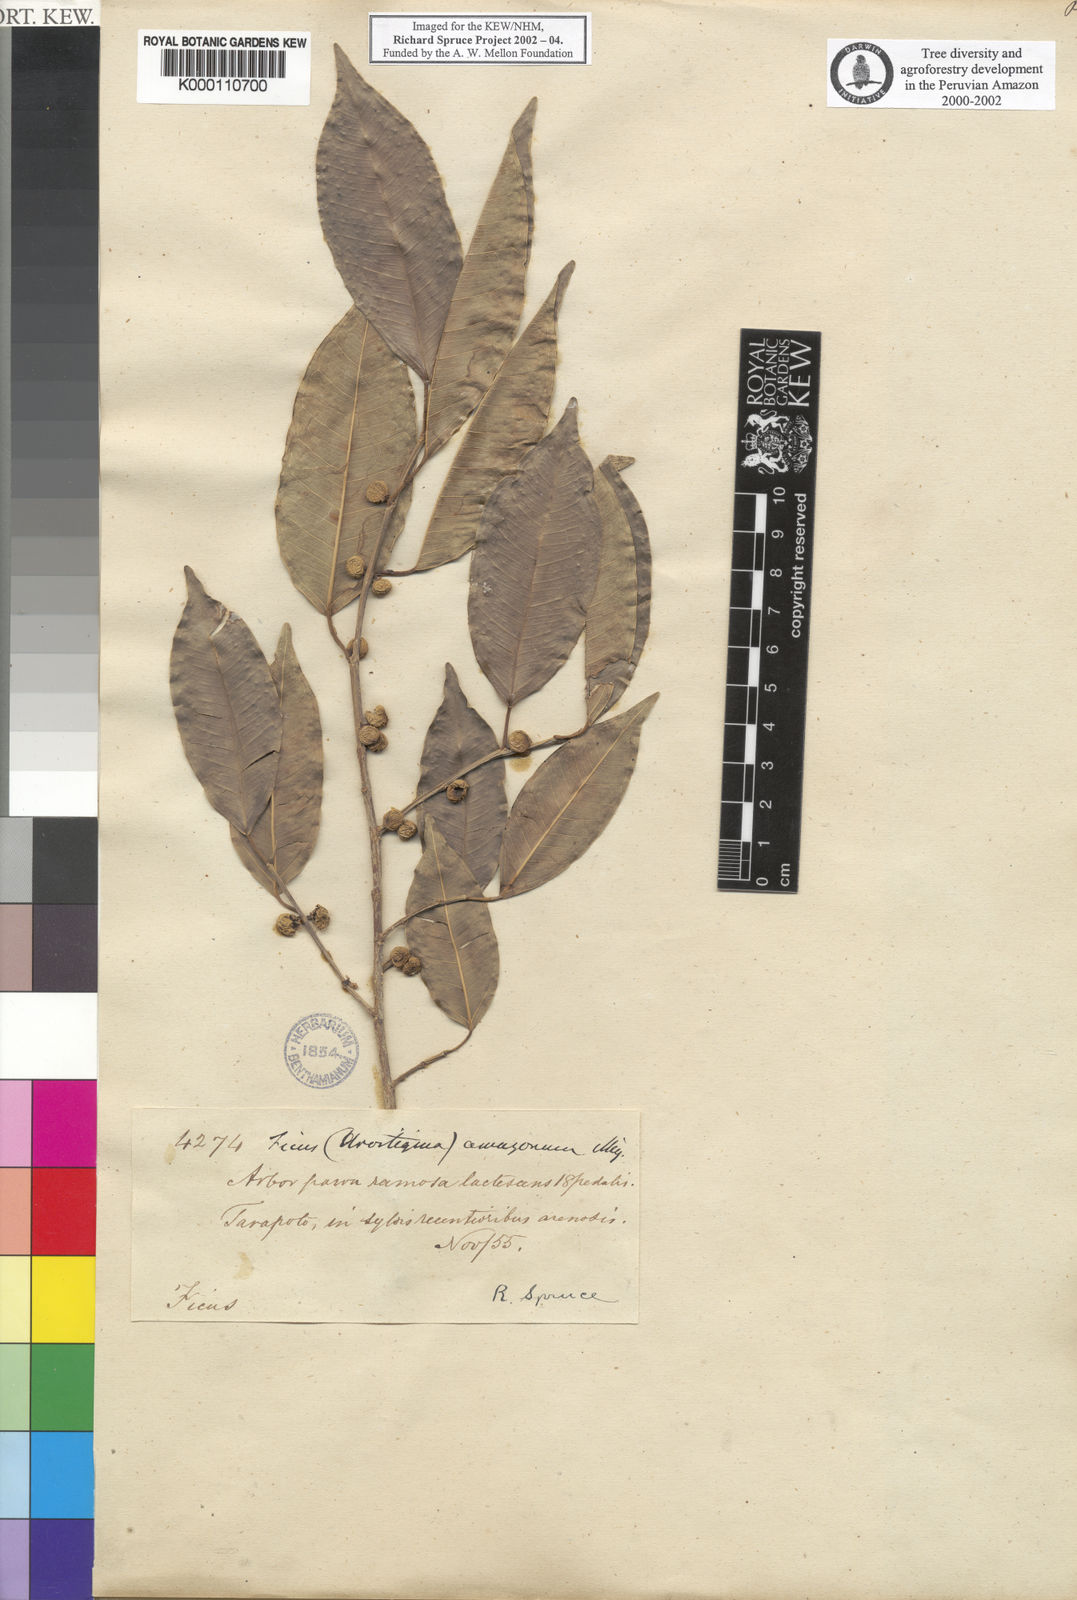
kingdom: Plantae
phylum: Tracheophyta
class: Magnoliopsida
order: Rosales
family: Moraceae
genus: Ficus
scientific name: Ficus pertusa
